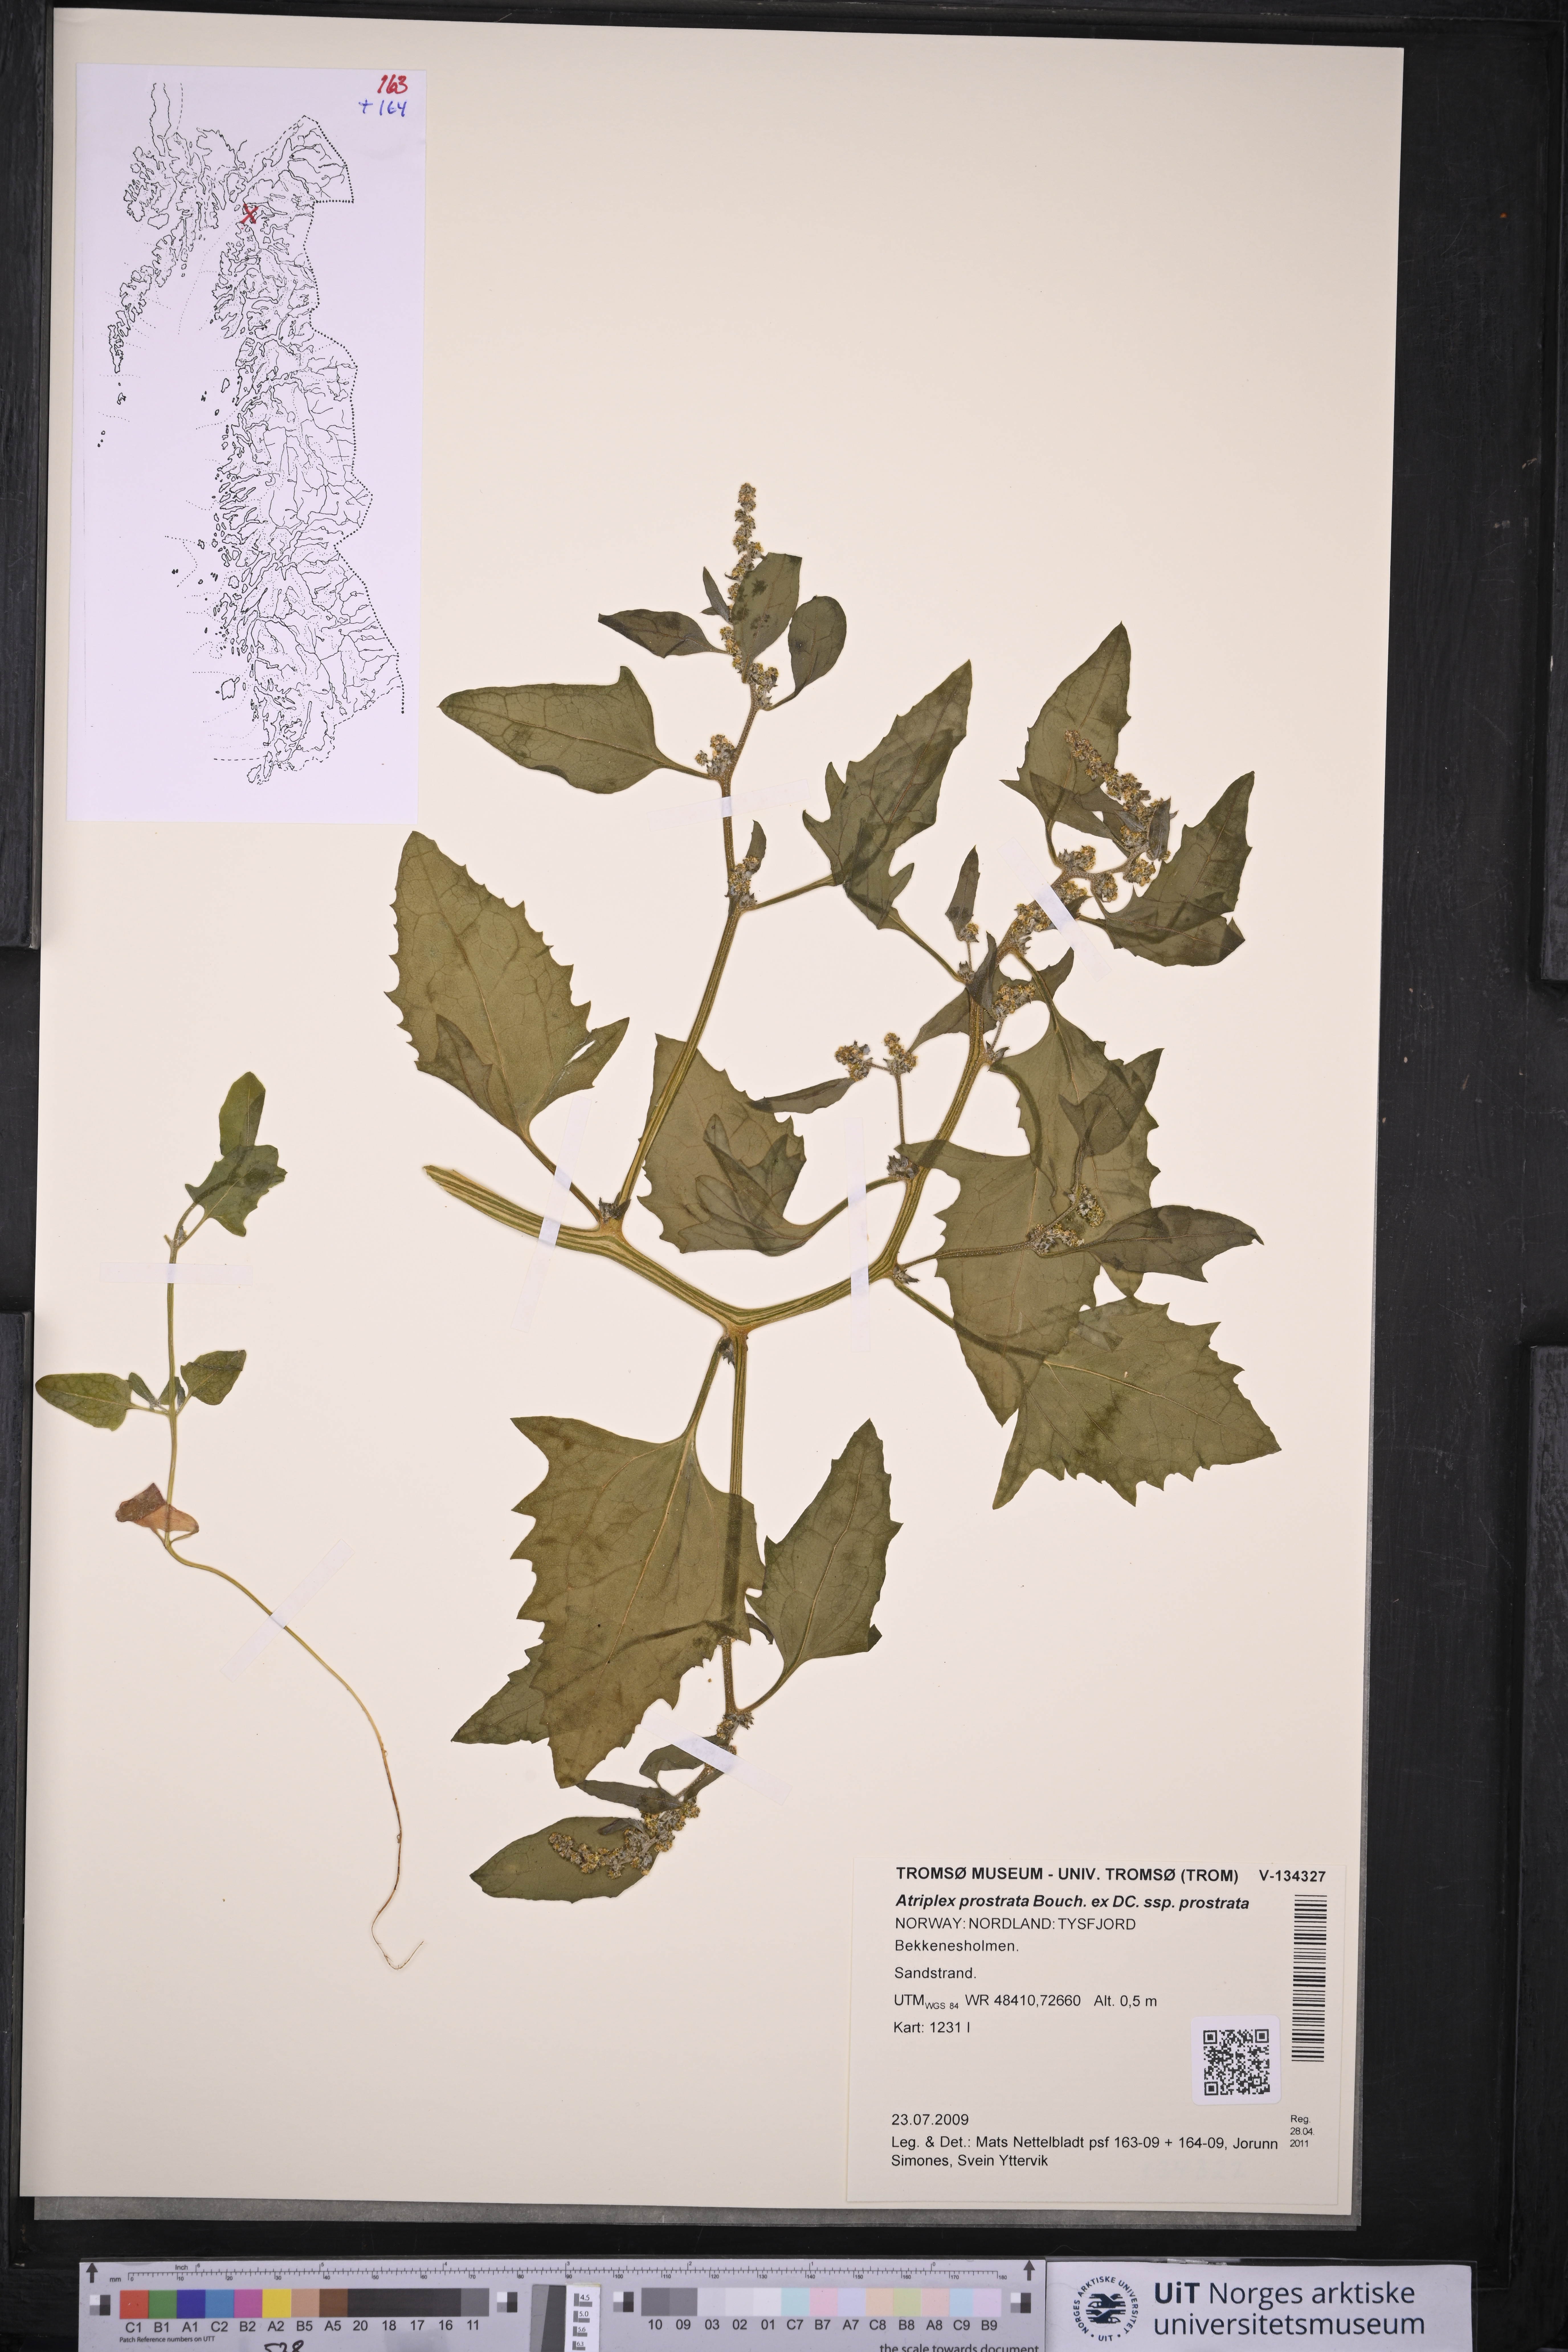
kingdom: Plantae
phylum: Tracheophyta
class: Magnoliopsida
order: Caryophyllales
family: Amaranthaceae
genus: Atriplex
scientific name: Atriplex prostrata
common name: Spear-leaved orache
